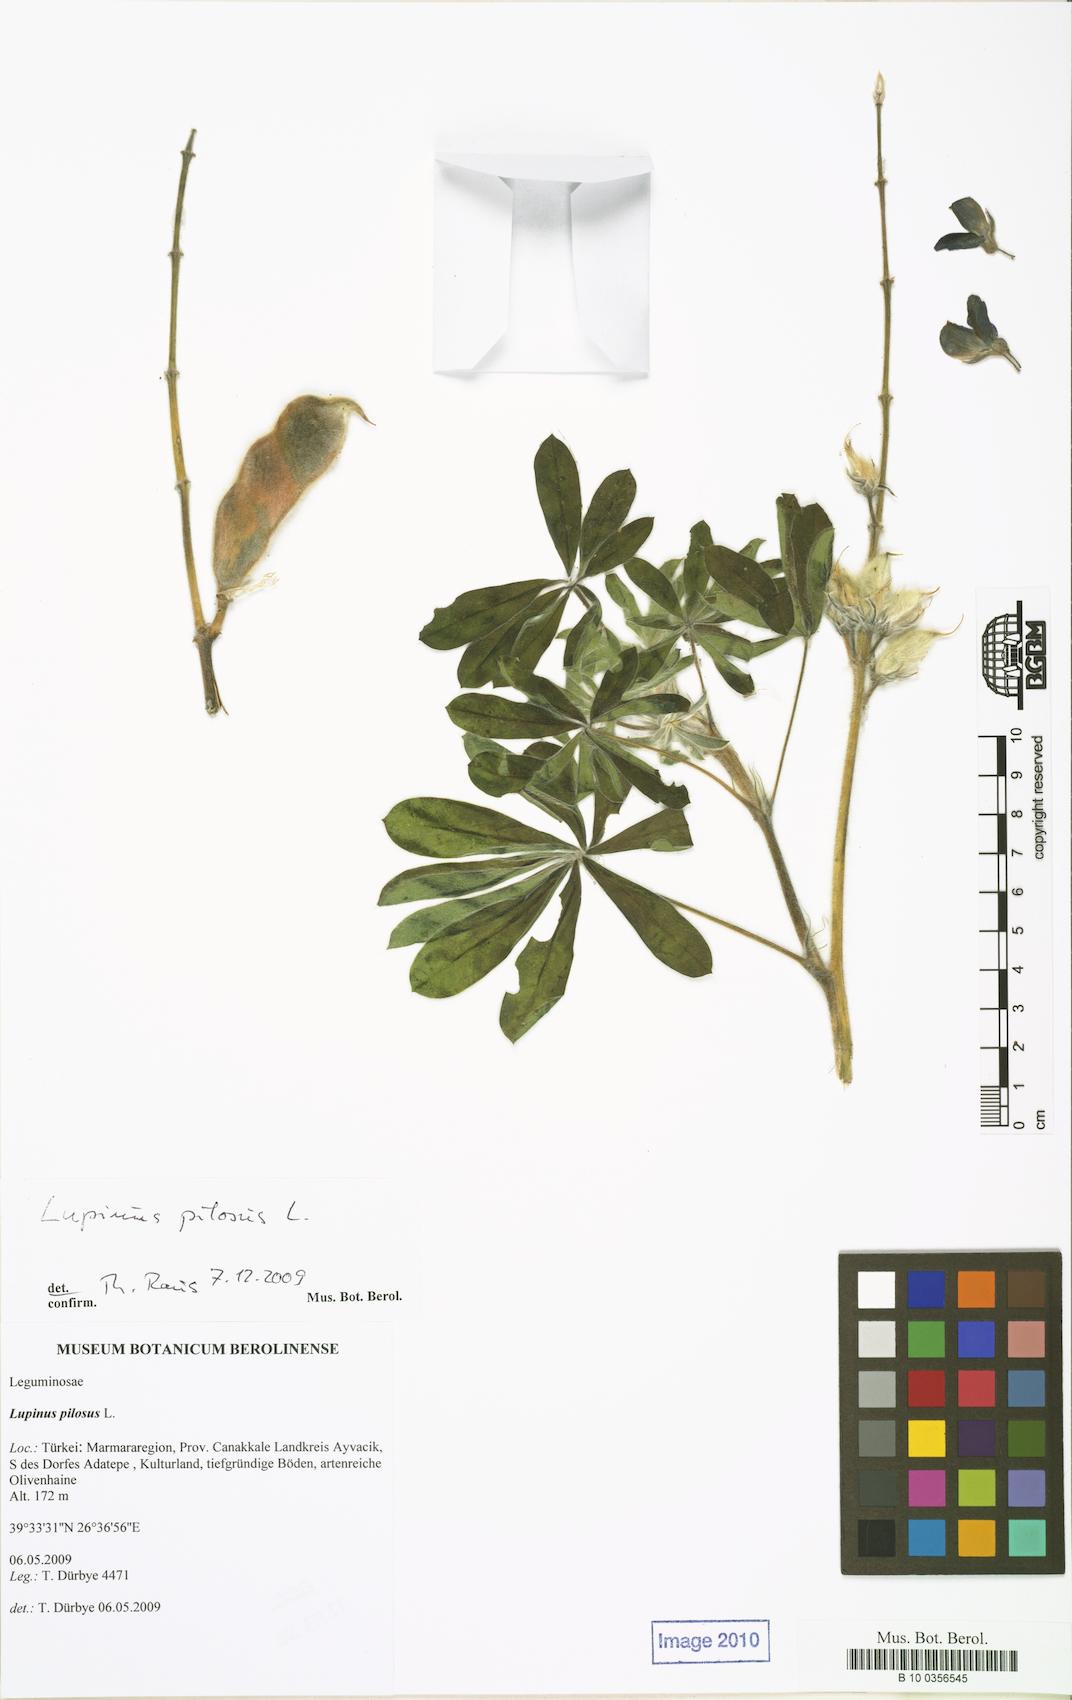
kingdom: Plantae
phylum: Tracheophyta
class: Magnoliopsida
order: Fabales
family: Fabaceae
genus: Lupinus
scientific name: Lupinus pilosus
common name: Blue lupine
